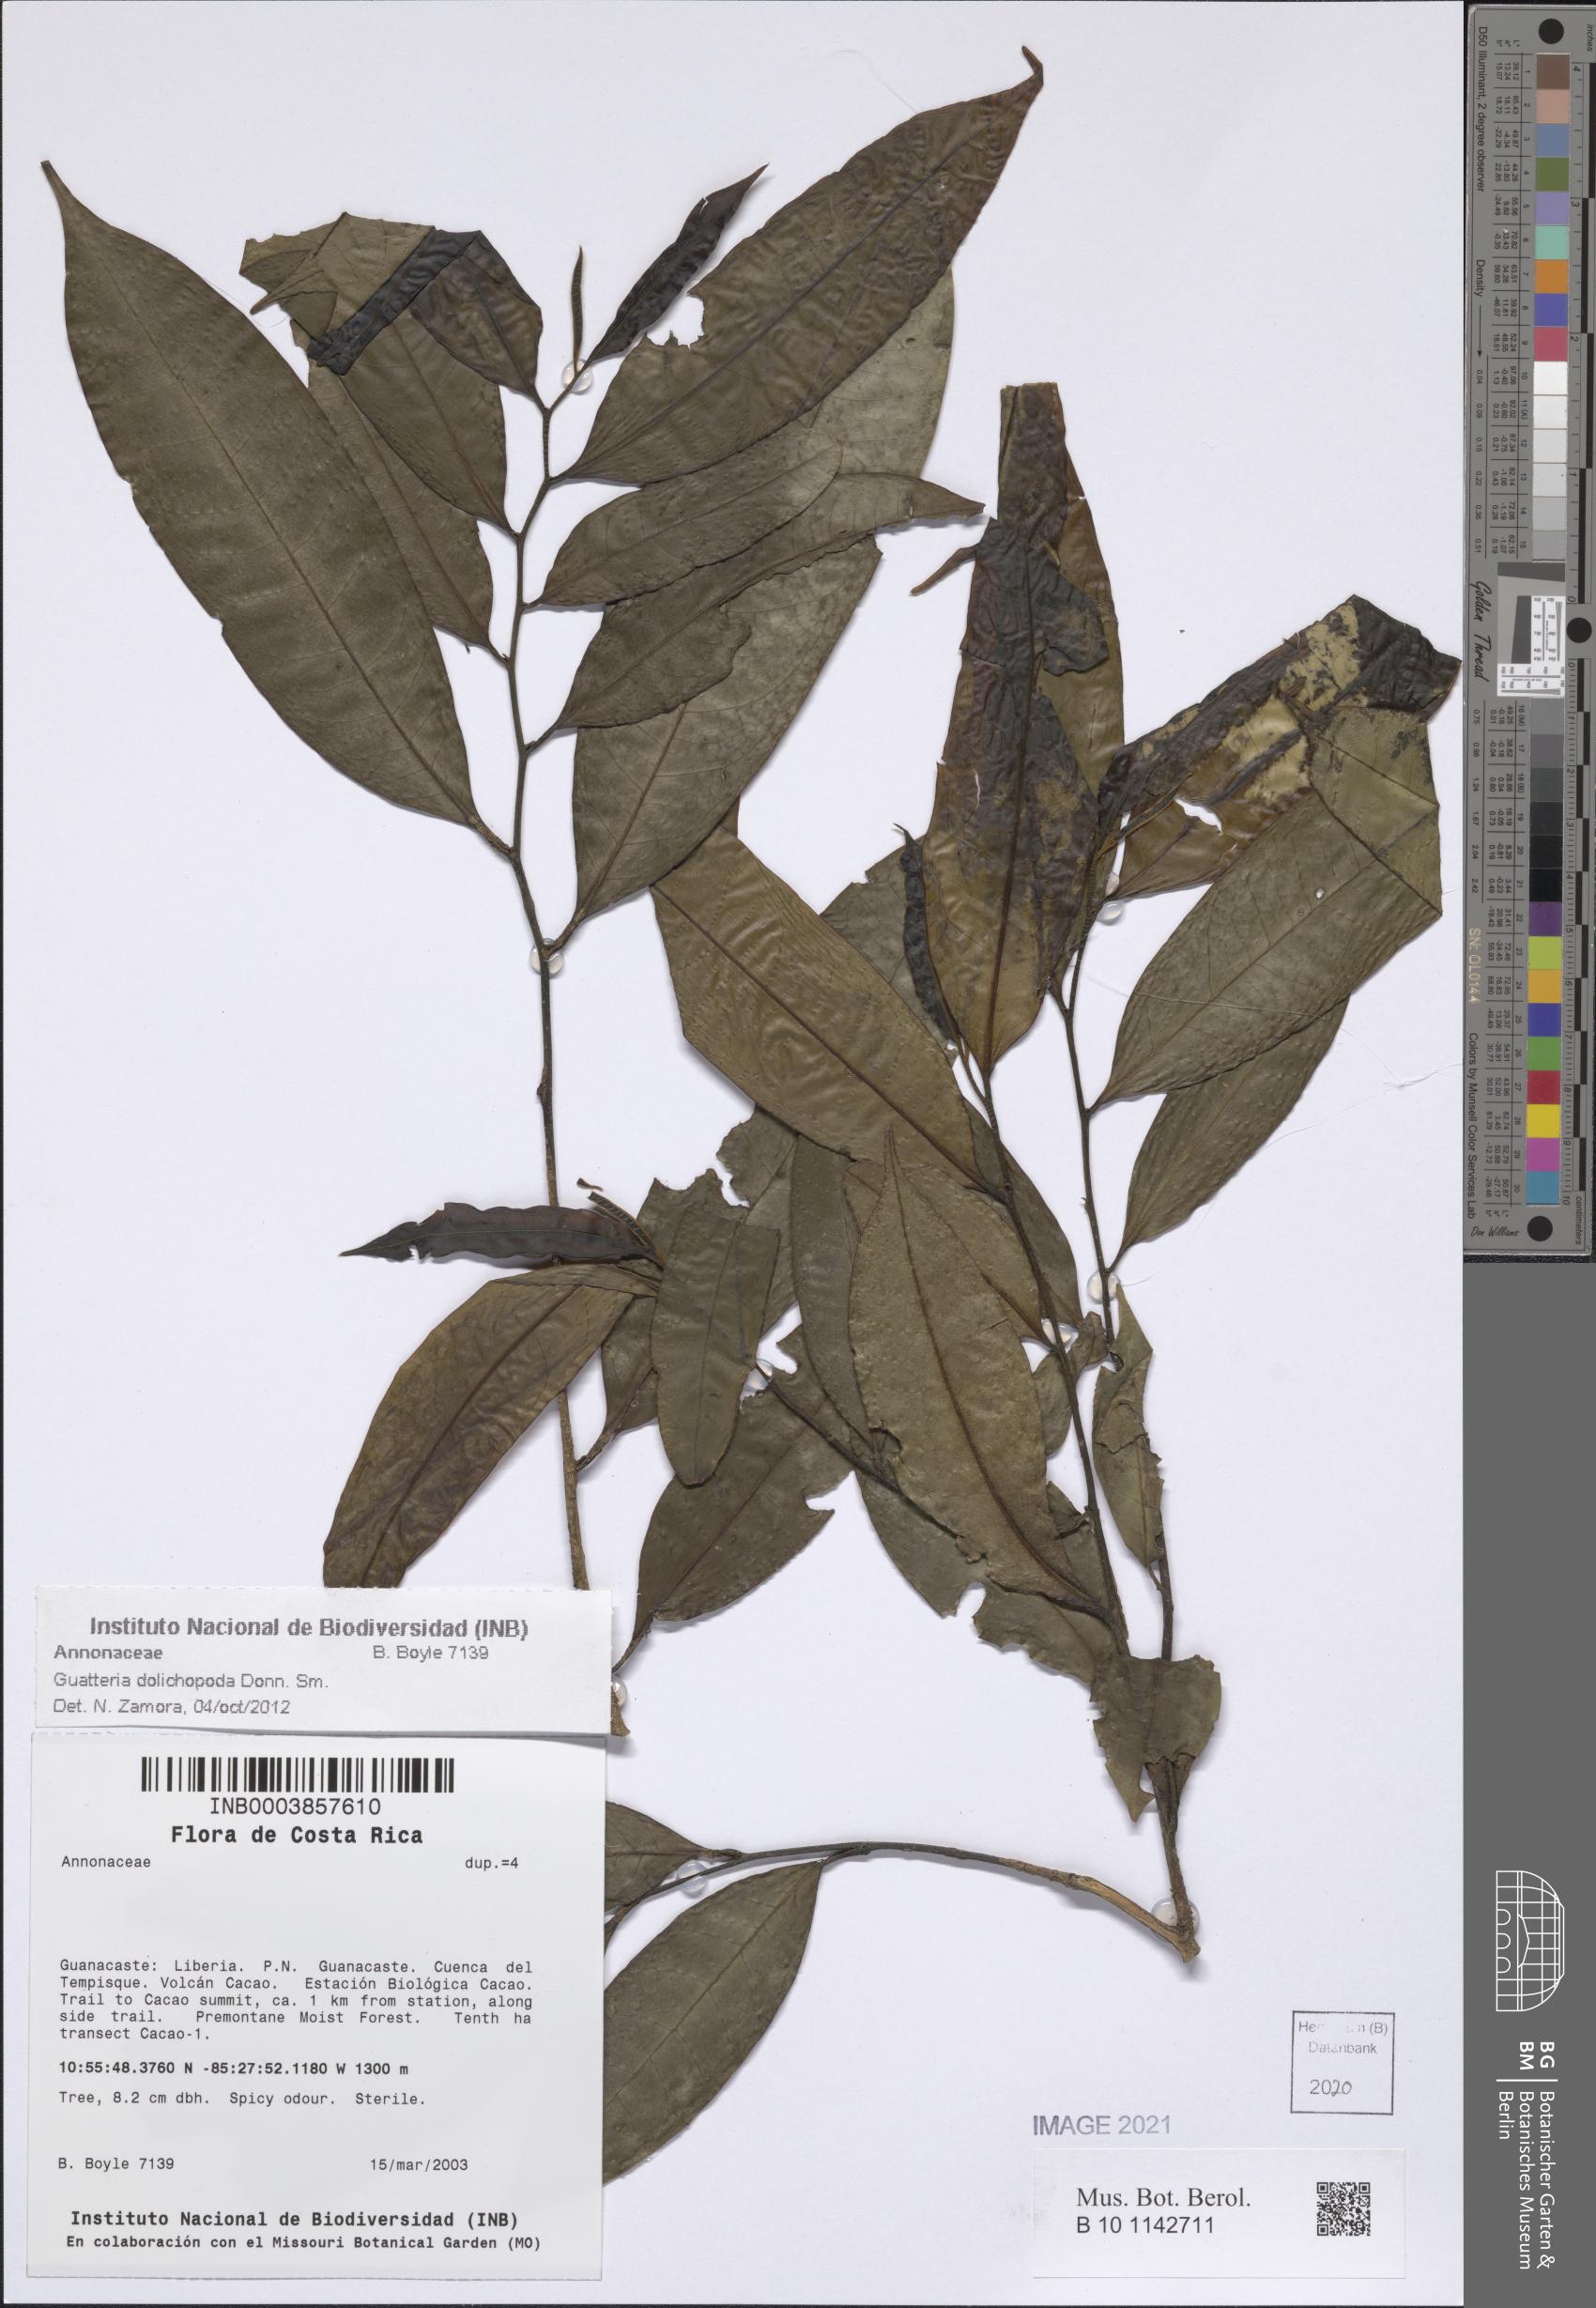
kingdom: Plantae
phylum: Tracheophyta
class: Magnoliopsida
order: Magnoliales
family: Annonaceae
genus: Guatteria
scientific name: Guatteria dolichopoda
